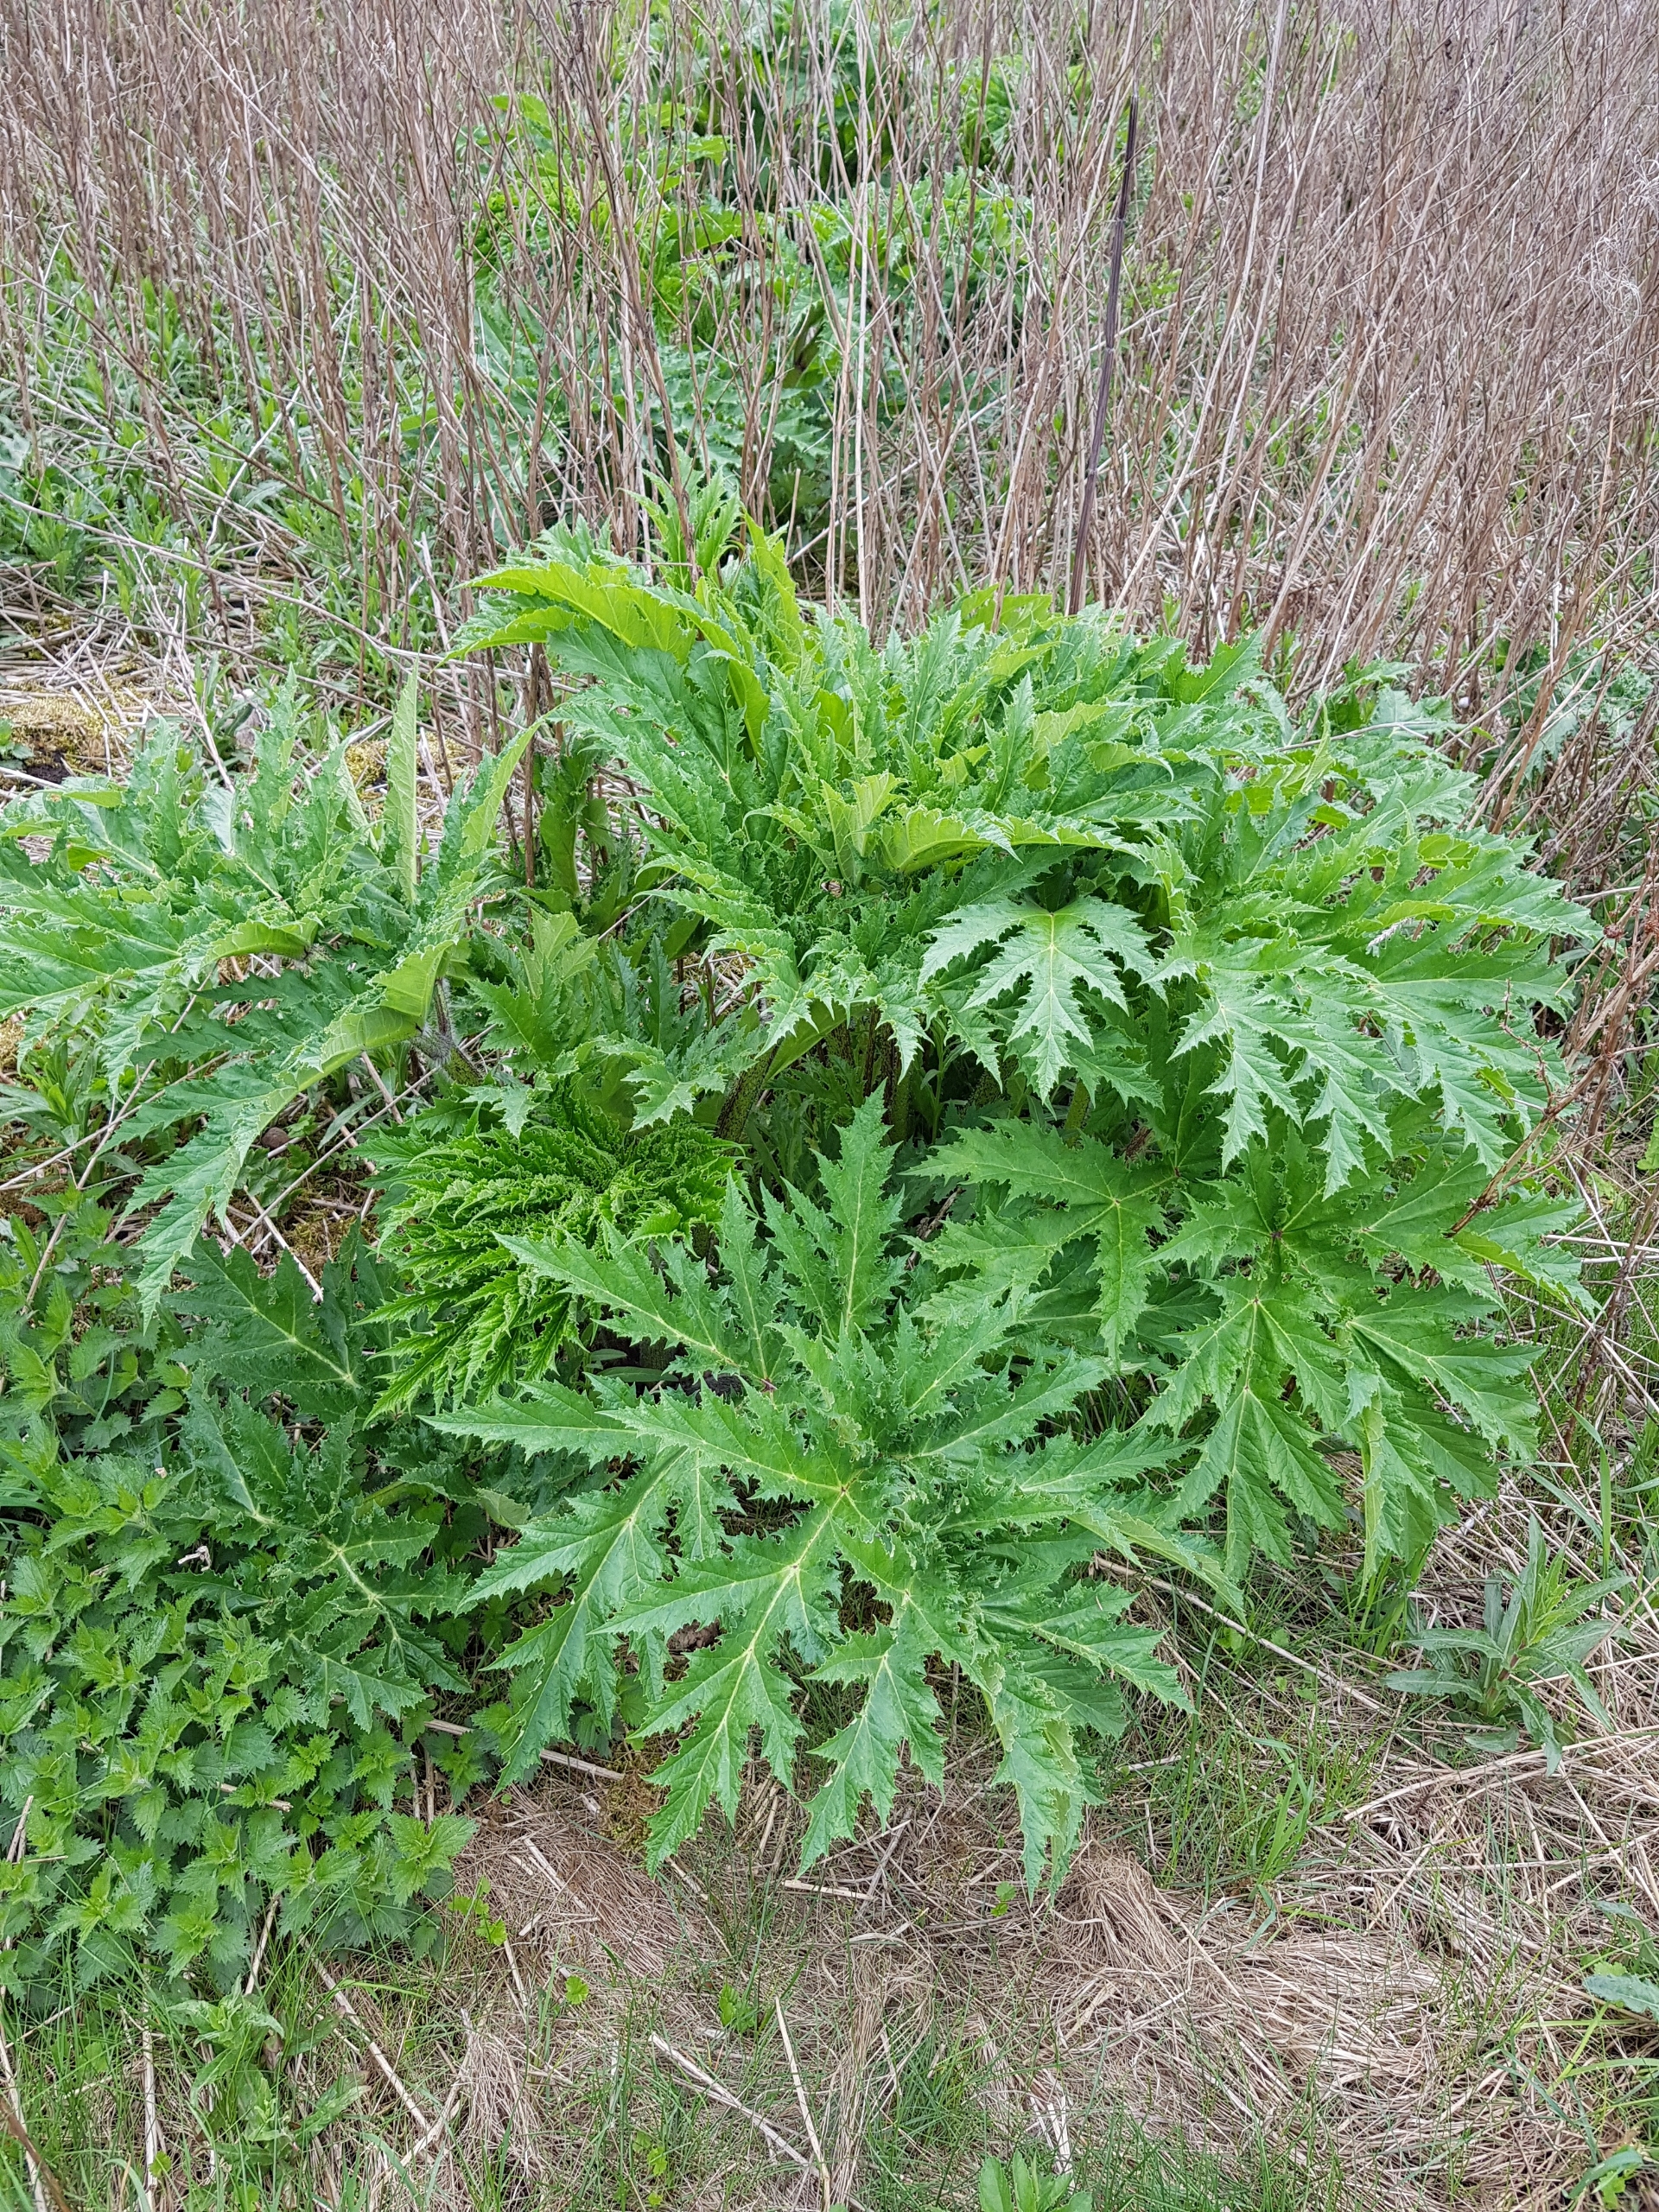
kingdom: Plantae
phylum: Tracheophyta
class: Magnoliopsida
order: Apiales
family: Apiaceae
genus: Heracleum
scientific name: Heracleum mantegazzianum
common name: Kæmpe-bjørneklo
